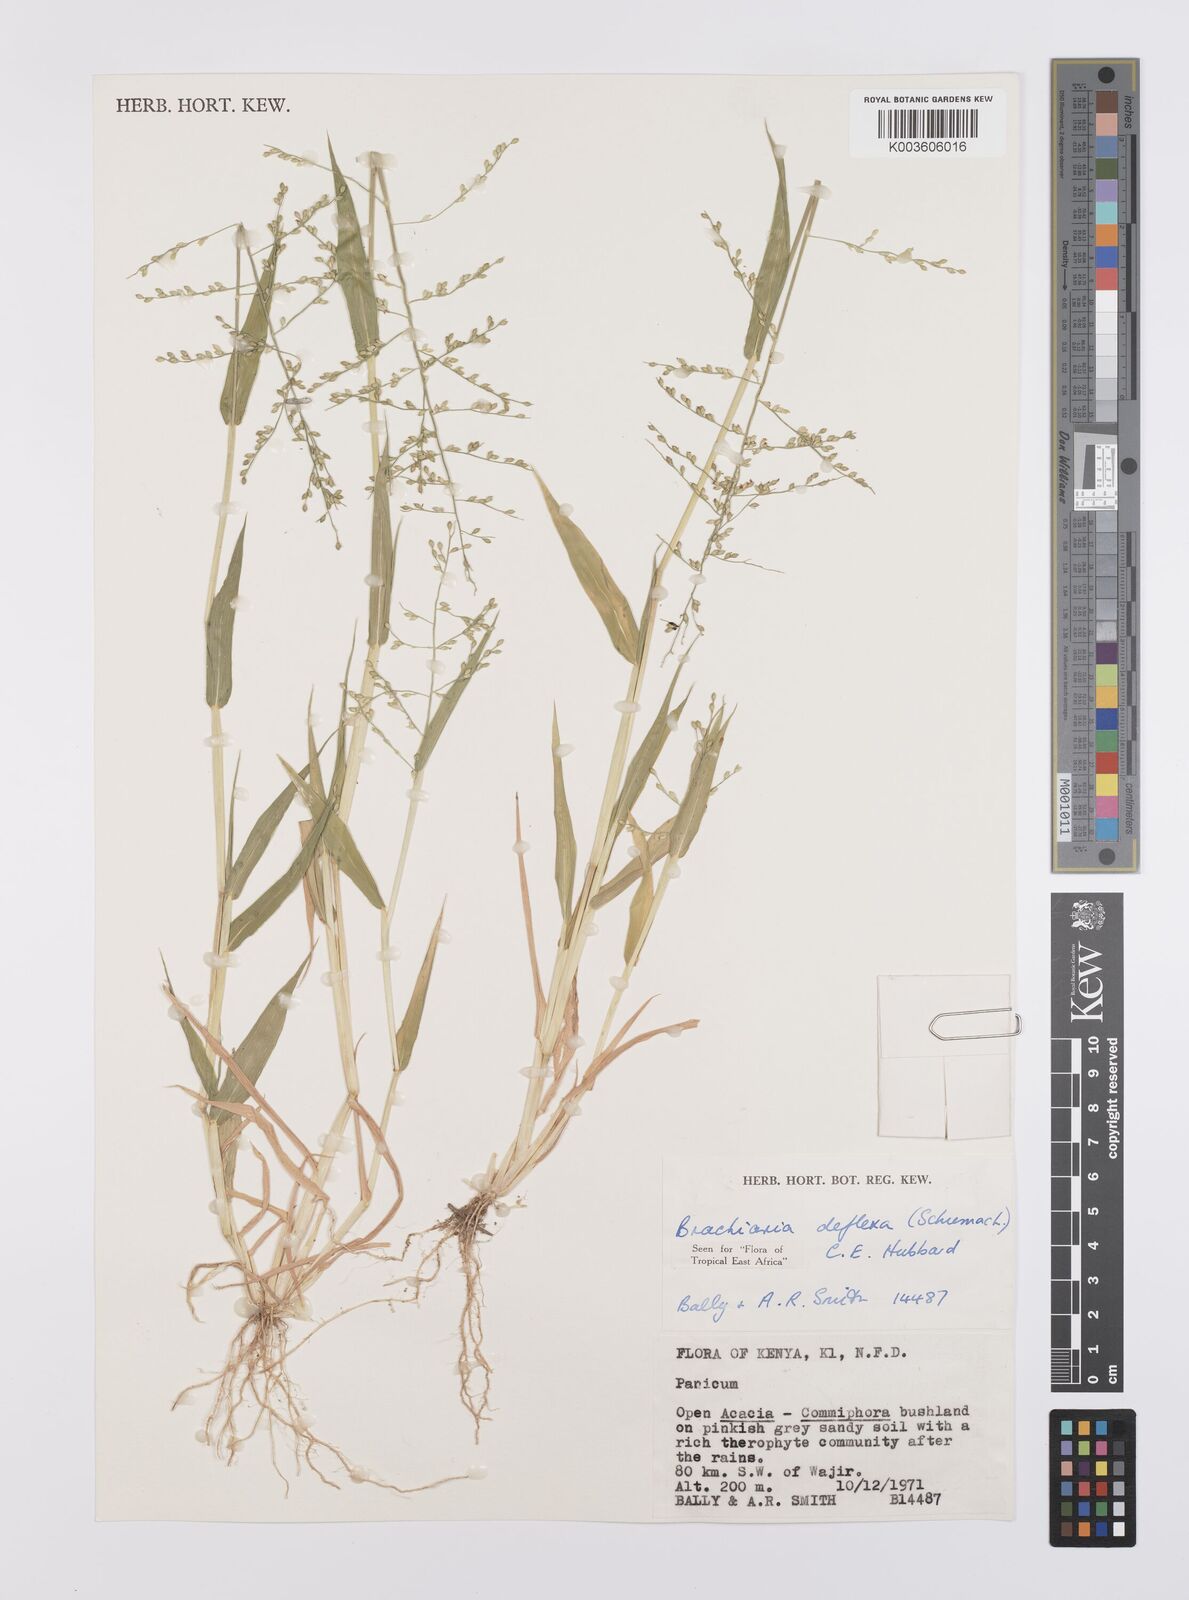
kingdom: Plantae
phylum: Tracheophyta
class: Liliopsida
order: Poales
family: Poaceae
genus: Urochloa
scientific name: Urochloa deflexa
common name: Guinea millet
